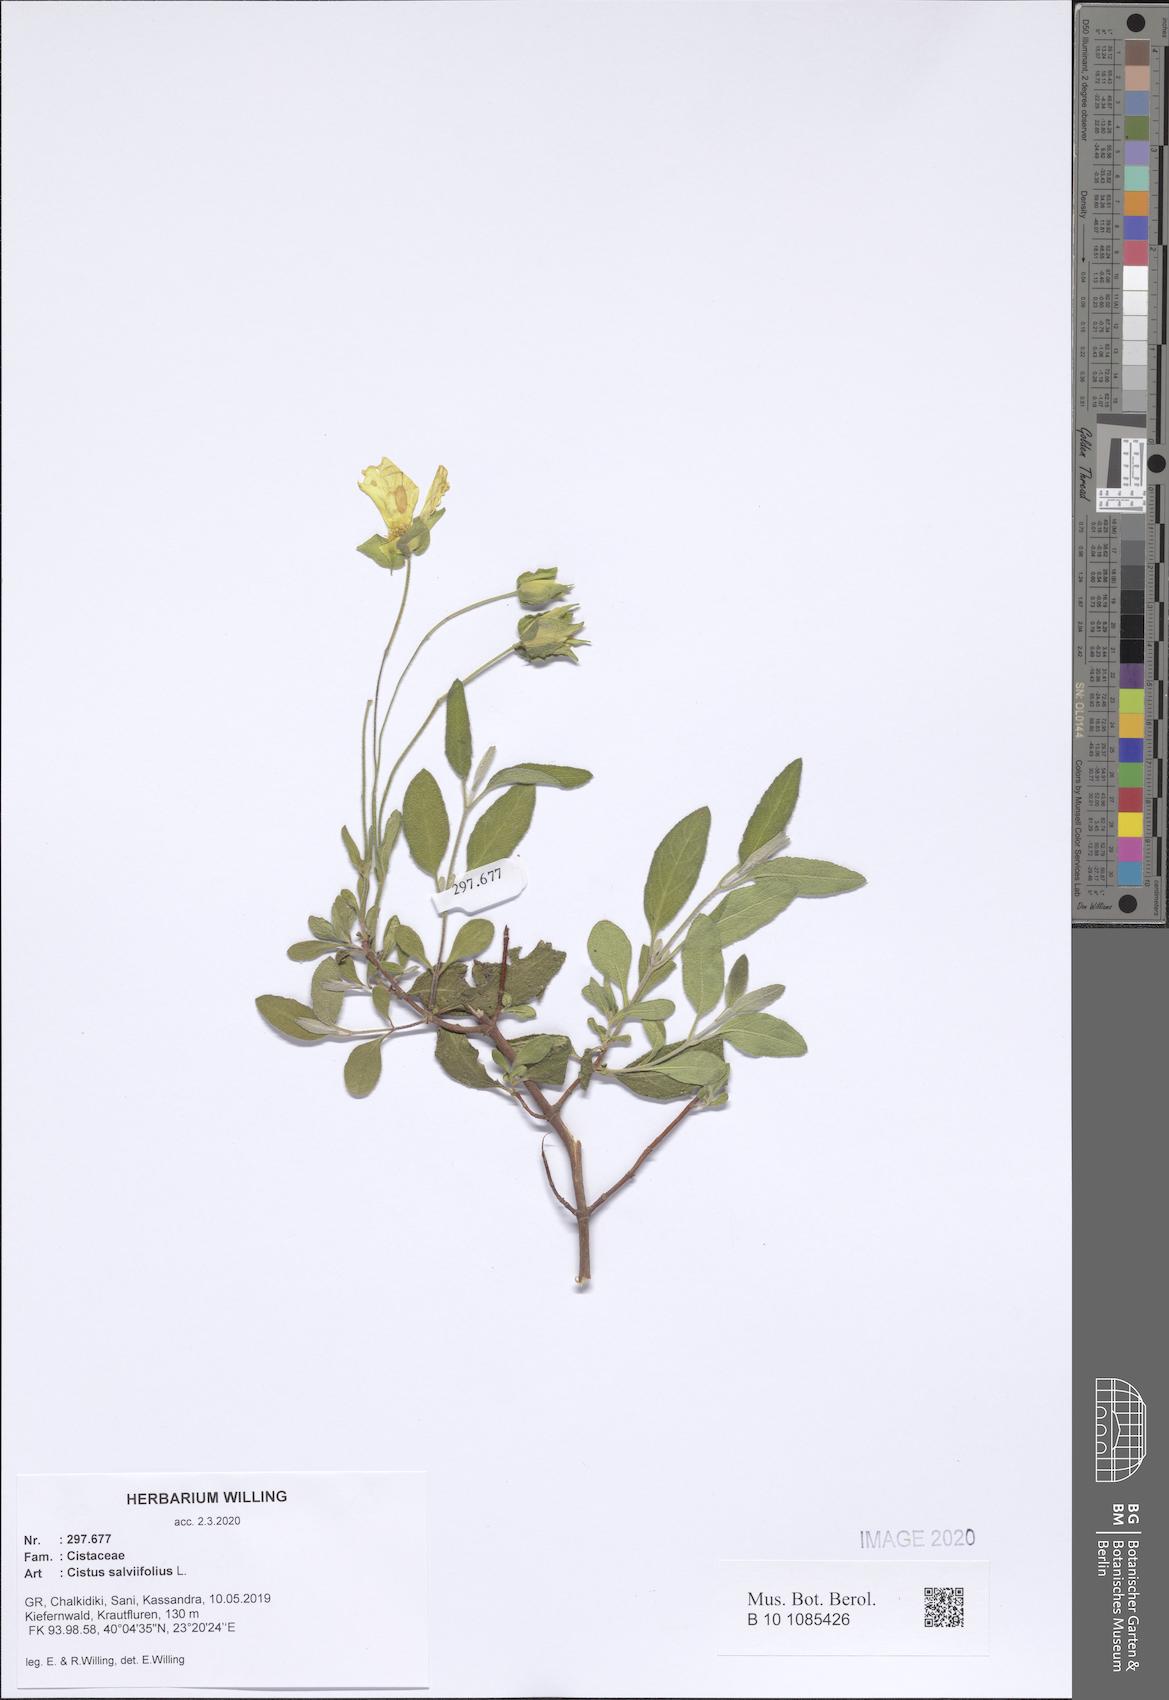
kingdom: Plantae
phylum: Tracheophyta
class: Magnoliopsida
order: Malvales
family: Cistaceae
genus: Cistus
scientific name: Cistus salviifolius
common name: Salvia cistus
